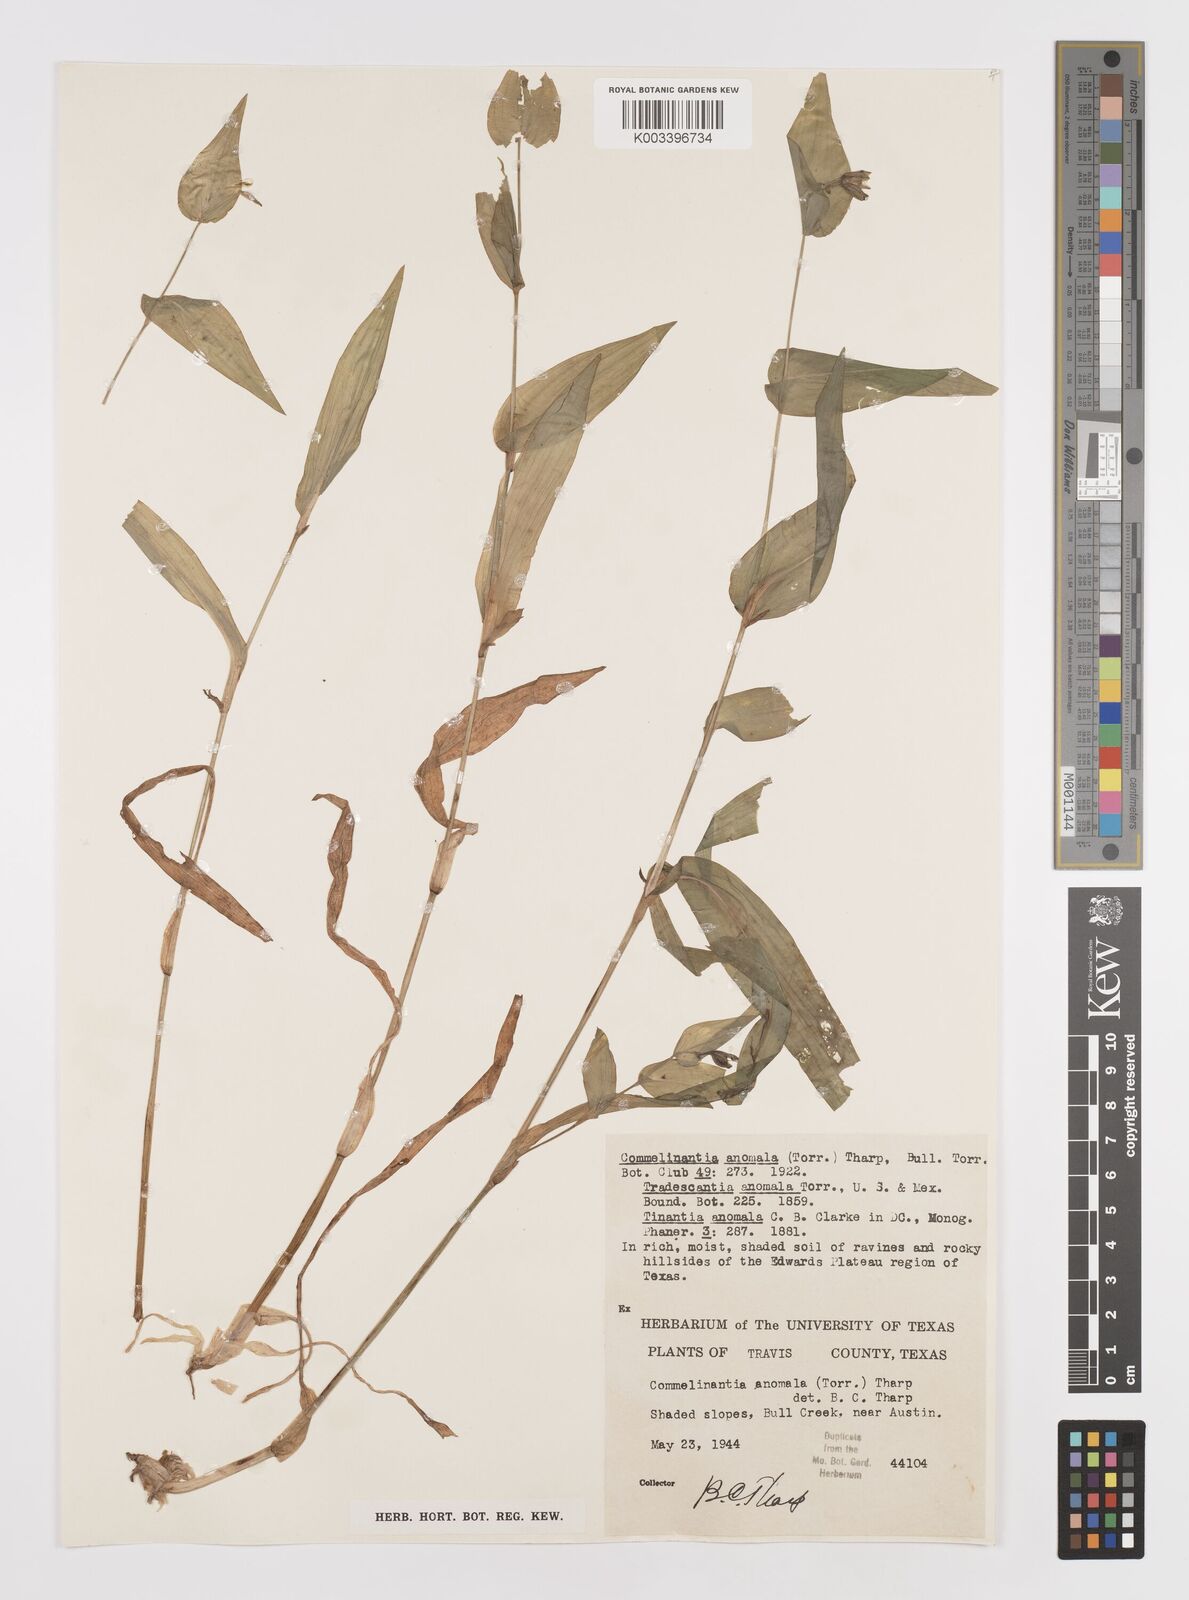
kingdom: Plantae
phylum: Tracheophyta
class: Liliopsida
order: Commelinales
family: Commelinaceae
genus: Tinantia
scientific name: Tinantia anomala
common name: False dayflower
